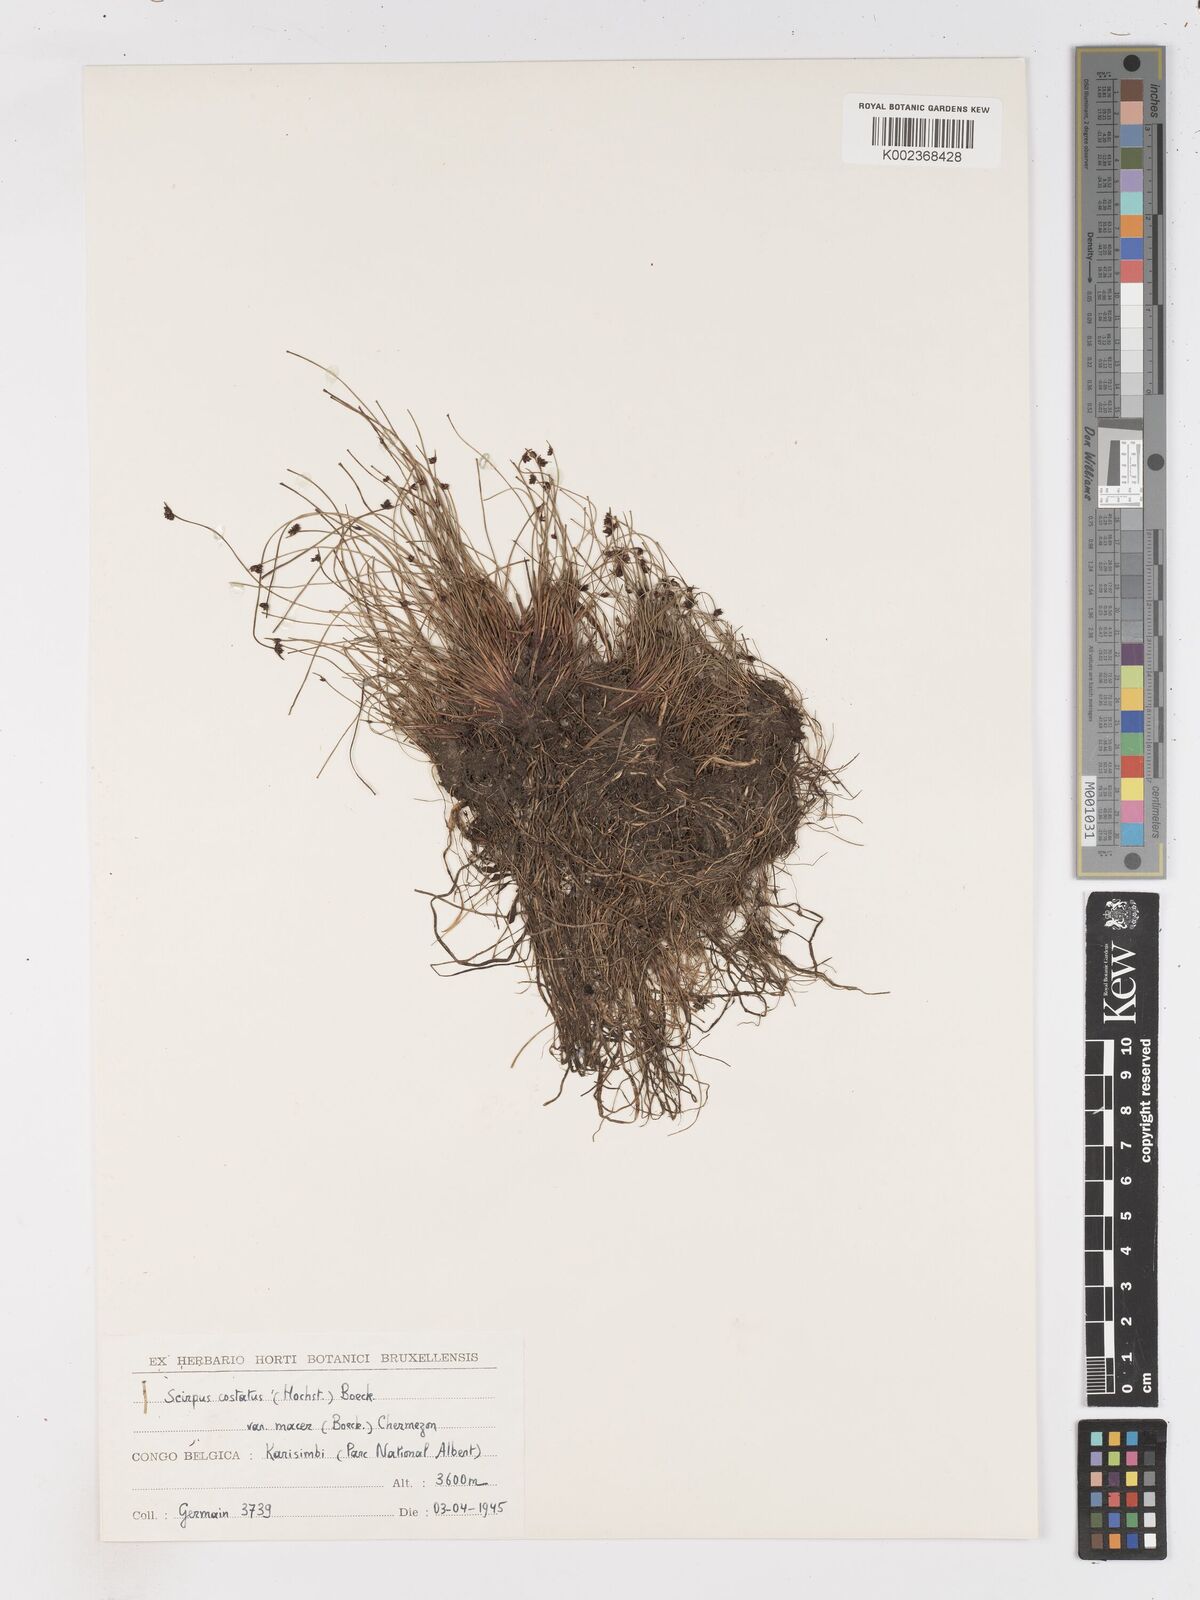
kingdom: Plantae
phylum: Tracheophyta
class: Liliopsida
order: Poales
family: Cyperaceae
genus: Isolepis
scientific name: Isolepis costata
